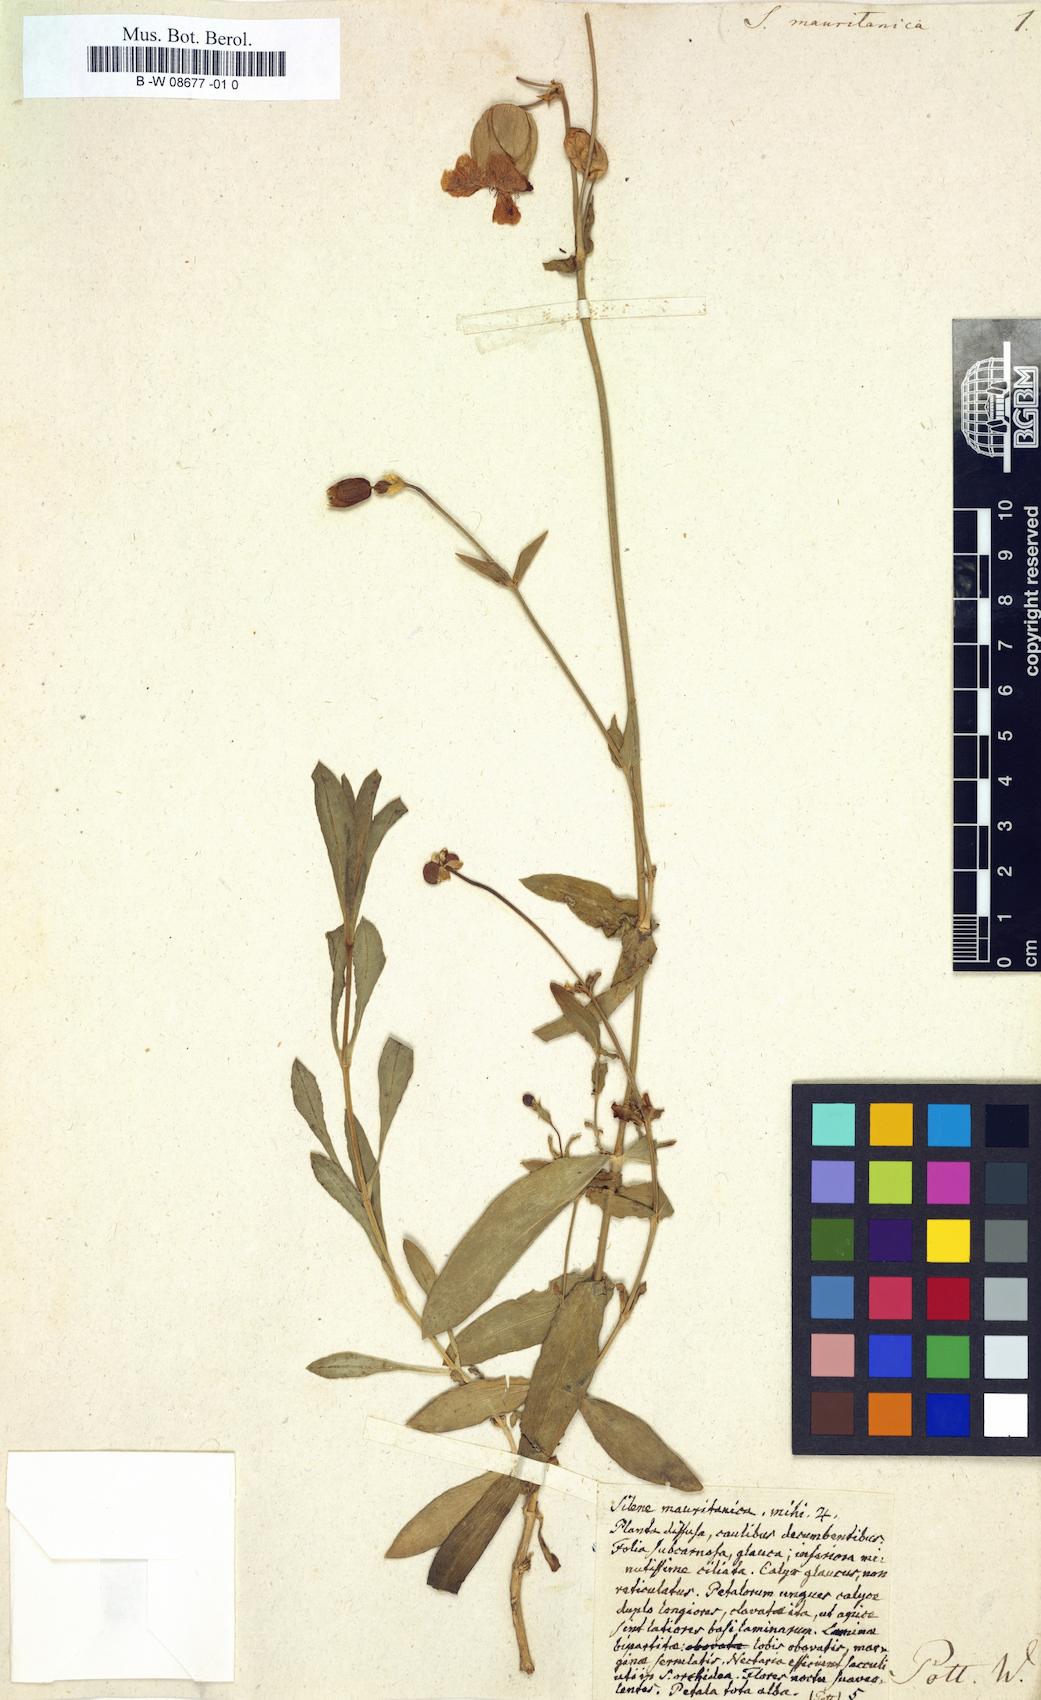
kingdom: Plantae
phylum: Tracheophyta
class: Magnoliopsida
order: Caryophyllales
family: Caryophyllaceae
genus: Silene
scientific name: Silene
